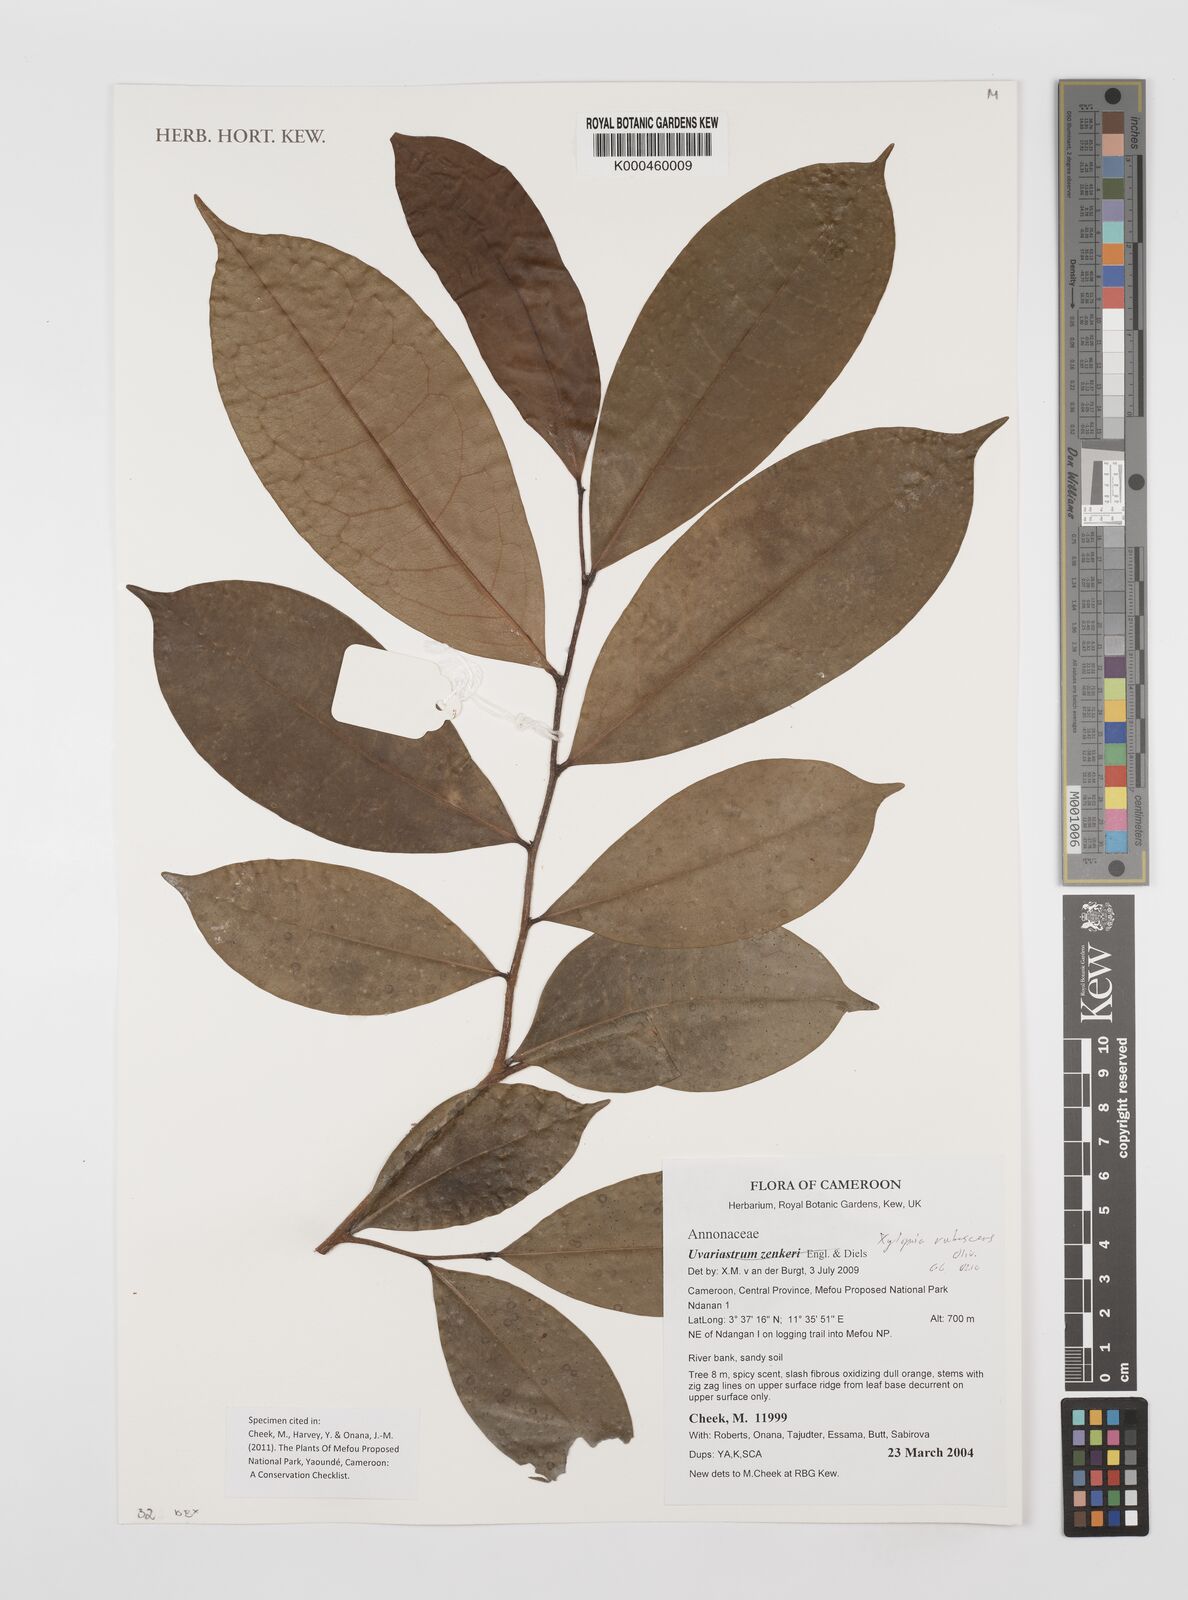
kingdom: Plantae
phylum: Tracheophyta
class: Magnoliopsida
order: Magnoliales
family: Annonaceae
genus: Xylopia
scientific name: Xylopia rubescens
